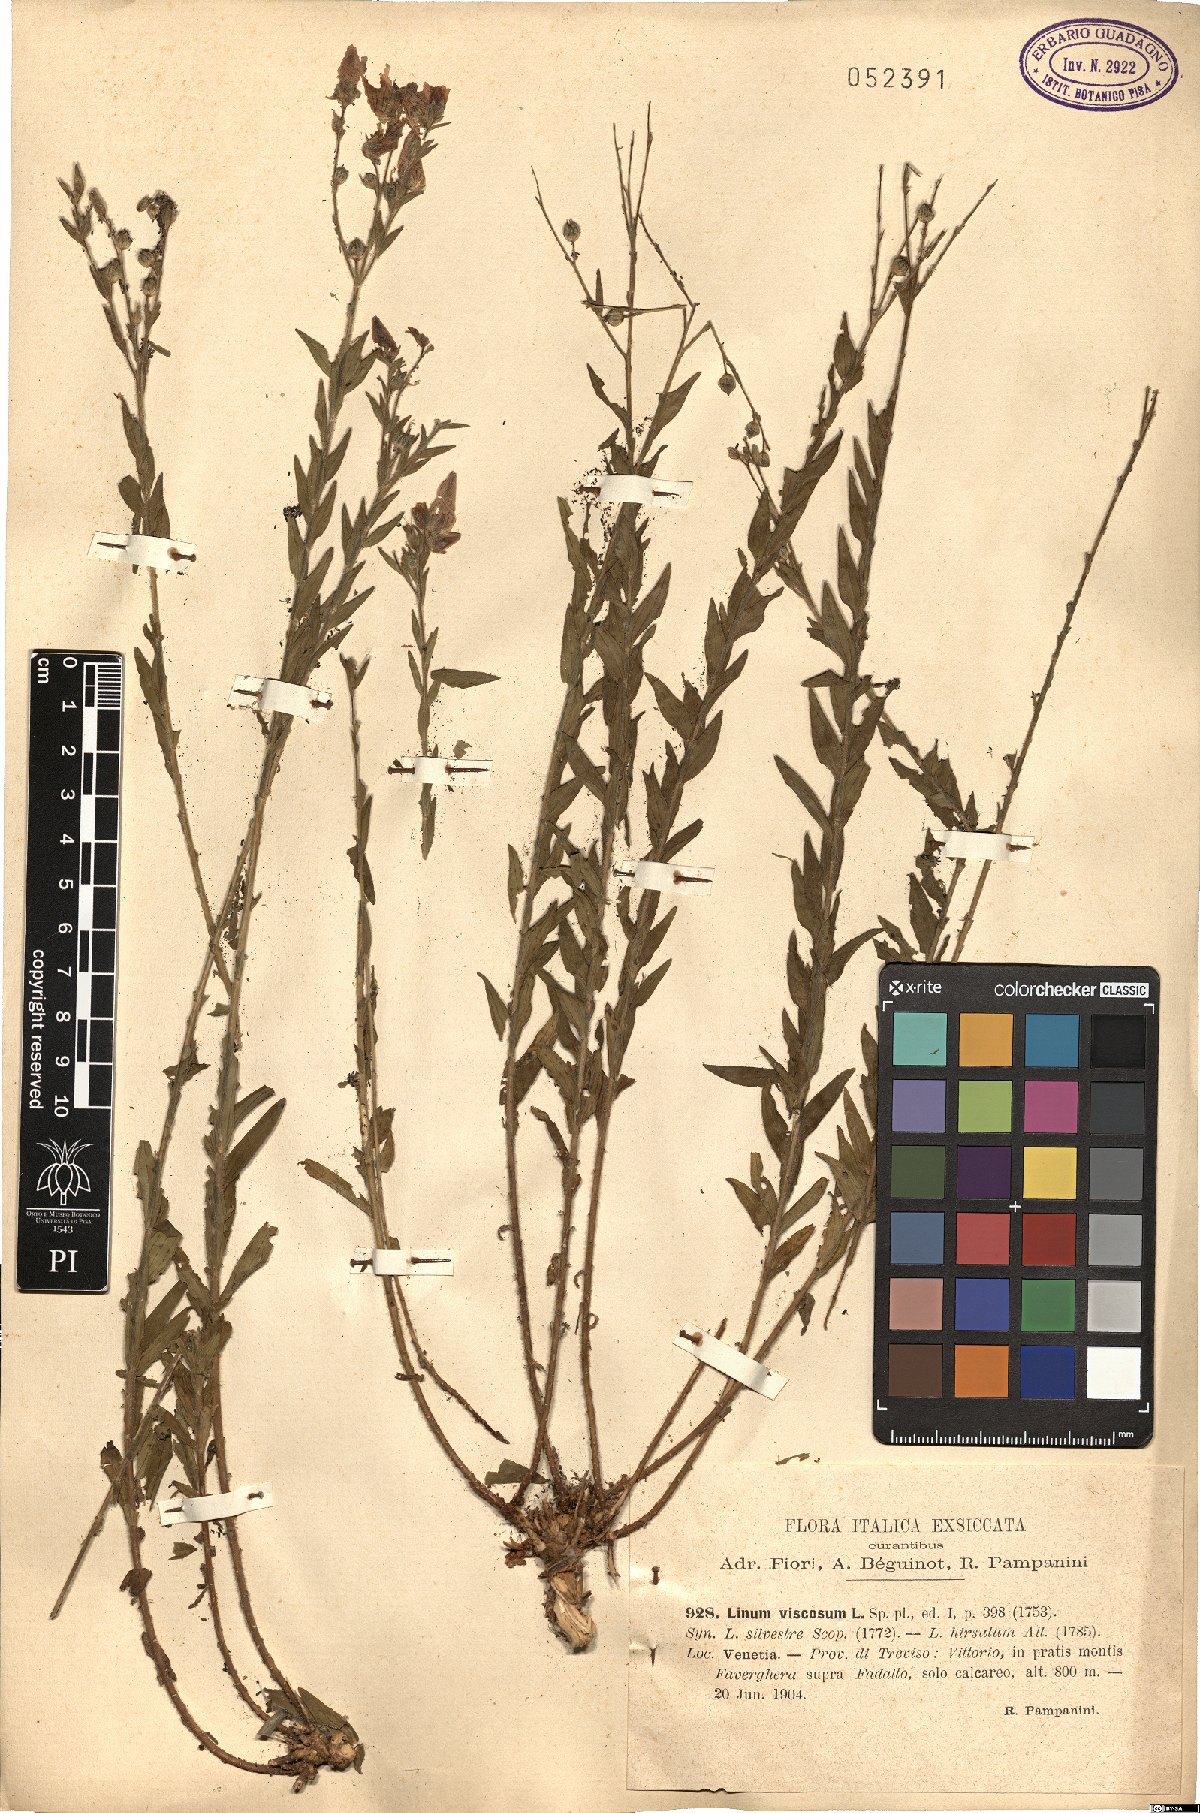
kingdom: Plantae
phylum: Tracheophyta
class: Magnoliopsida
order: Malpighiales
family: Linaceae
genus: Linum
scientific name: Linum viscosum
